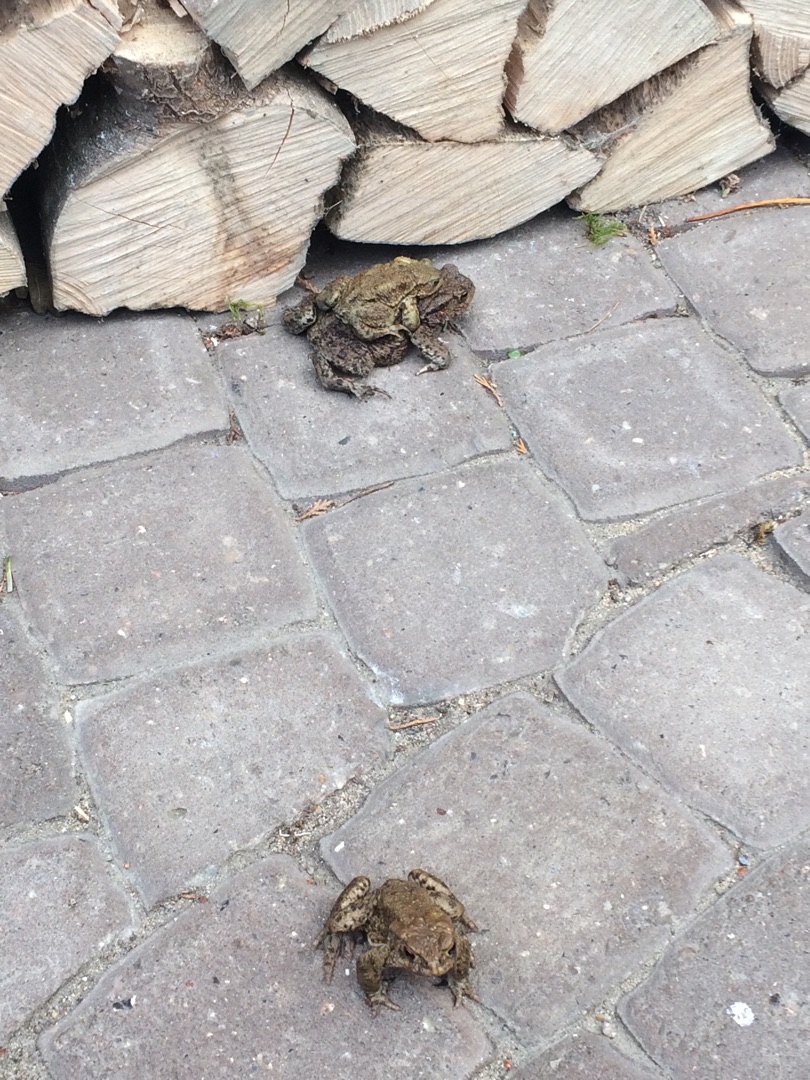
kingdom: Animalia
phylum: Chordata
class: Amphibia
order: Anura
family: Bufonidae
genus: Bufo
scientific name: Bufo bufo
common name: Skrubtudse
